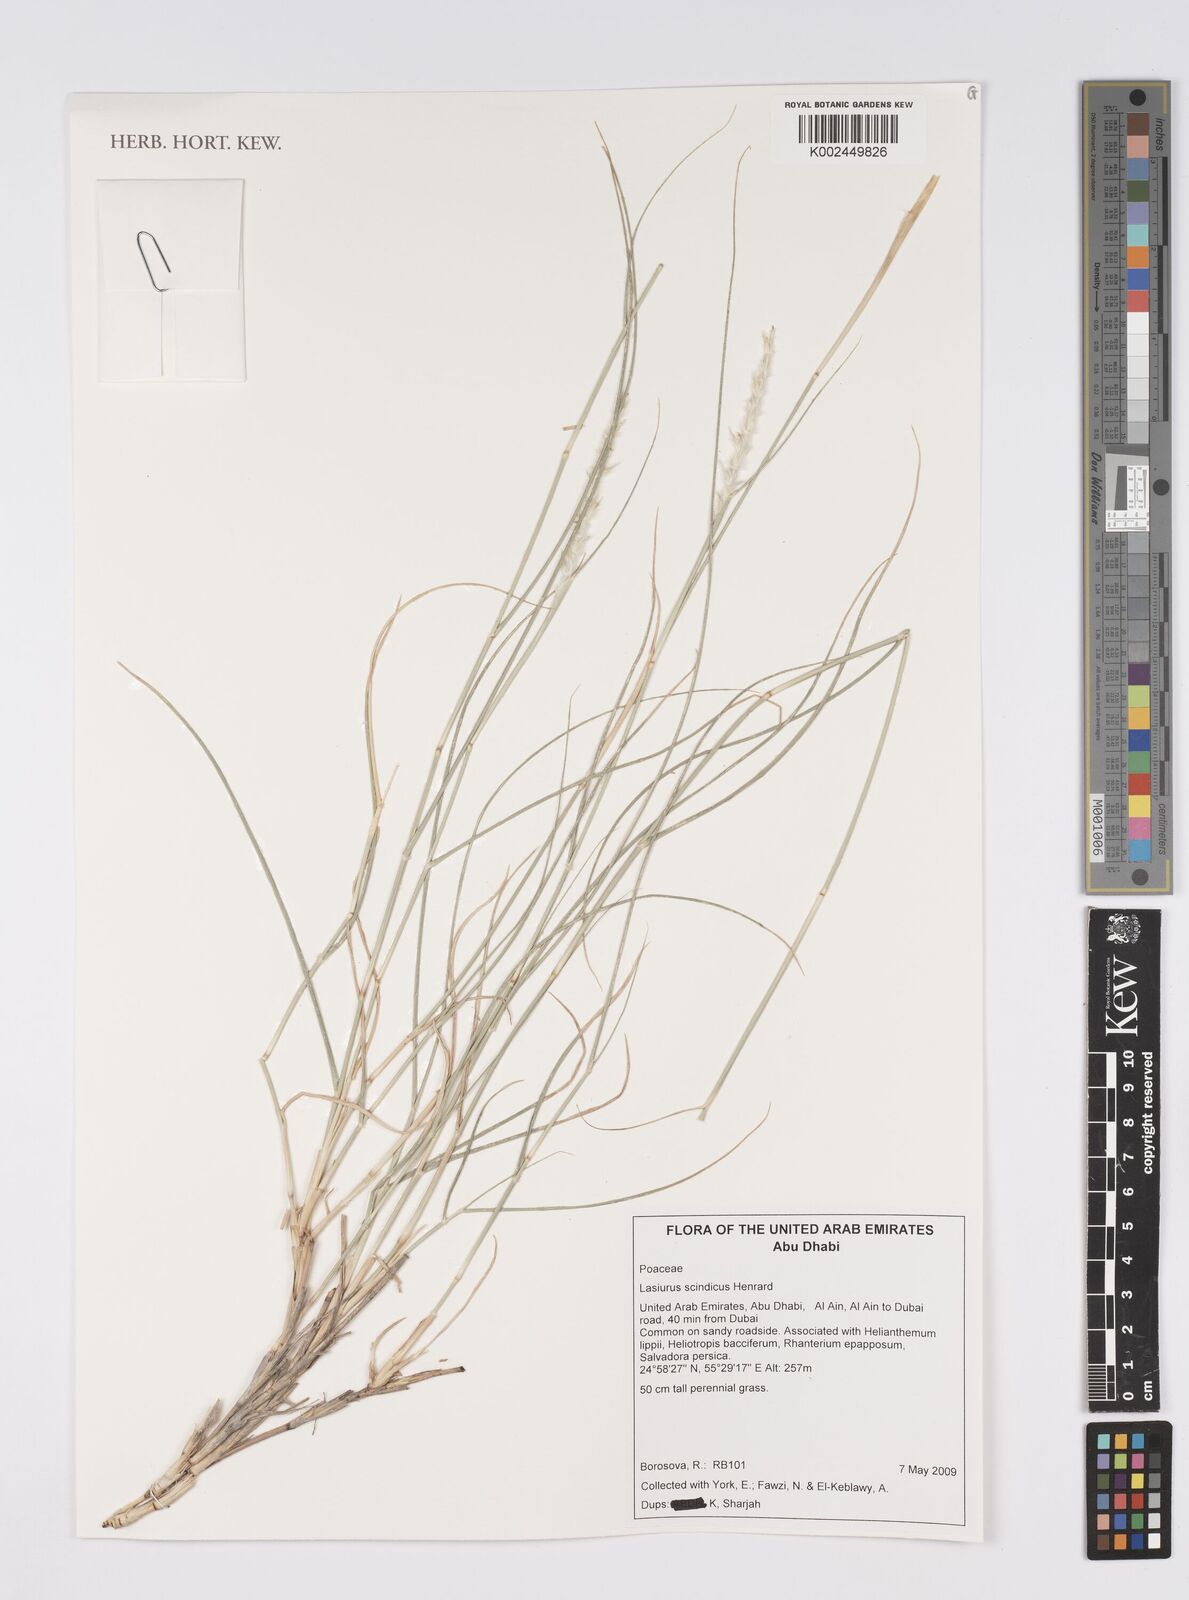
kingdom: Plantae
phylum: Tracheophyta
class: Liliopsida
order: Poales
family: Poaceae
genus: Lasiurus
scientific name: Lasiurus scindicus
